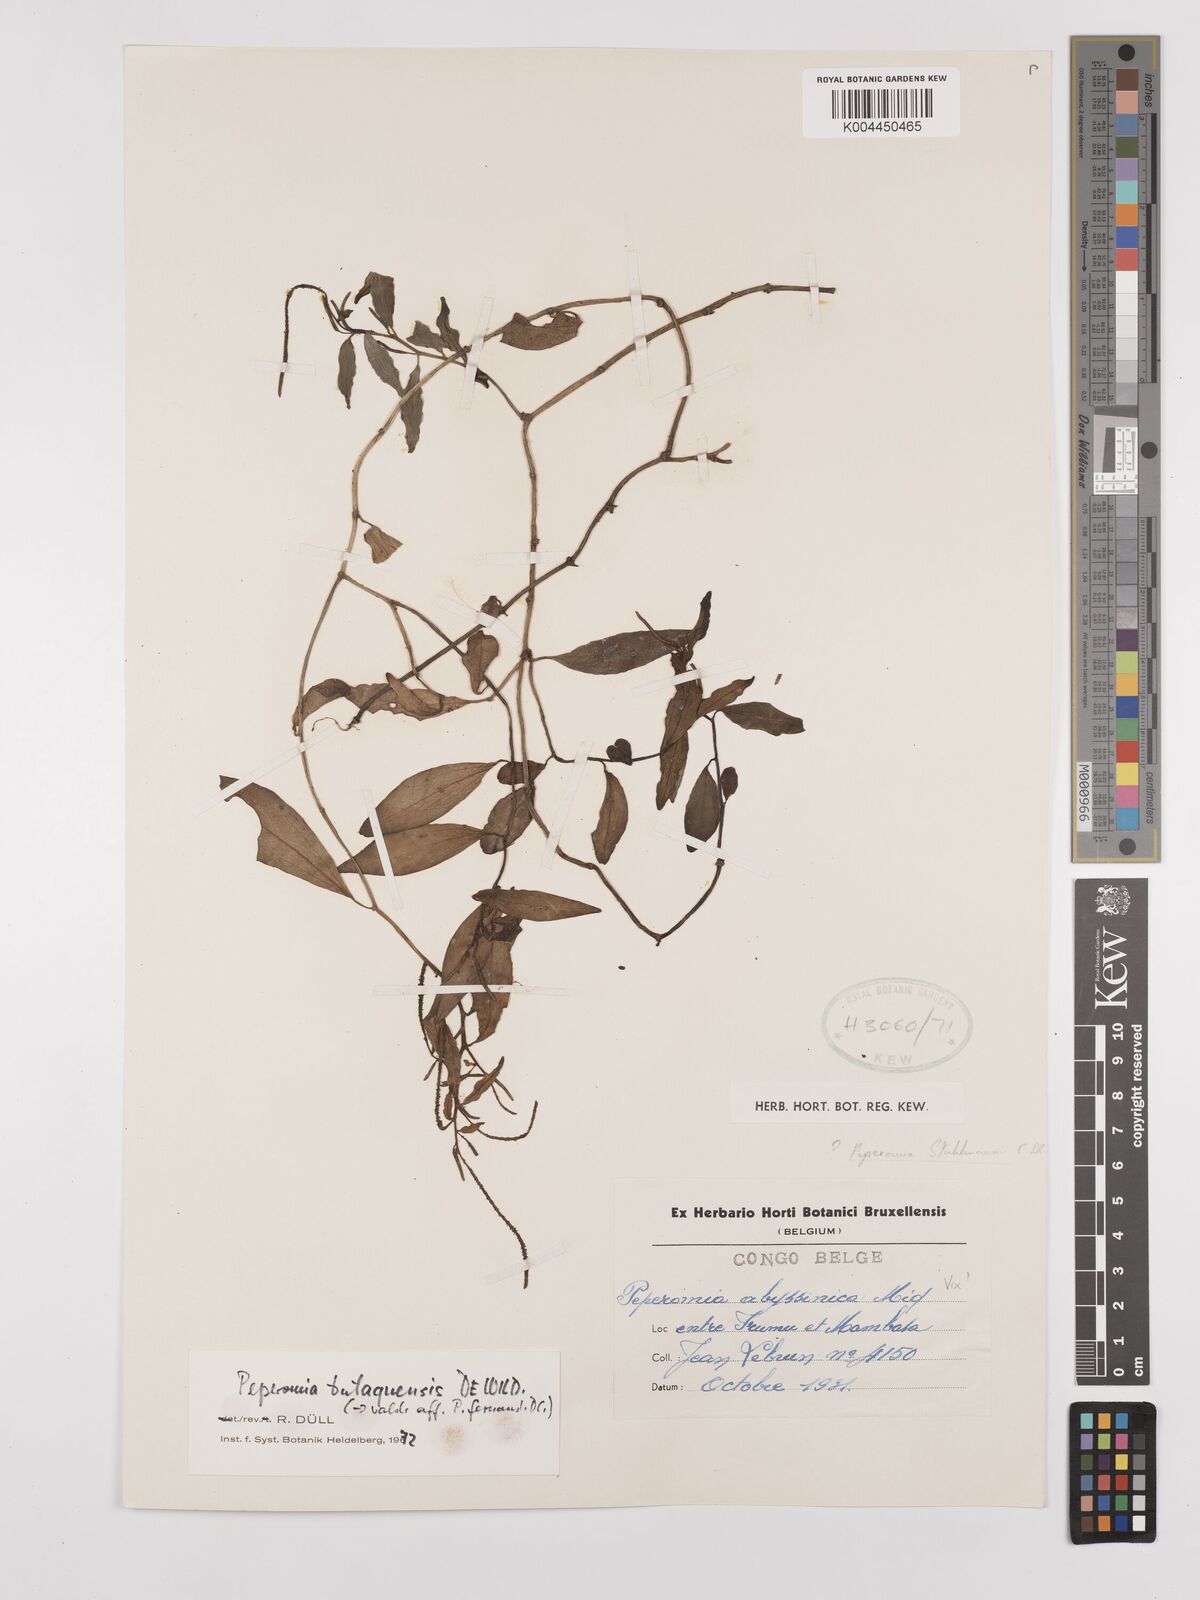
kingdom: Plantae
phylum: Tracheophyta
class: Magnoliopsida
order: Piperales
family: Piperaceae
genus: Peperomia
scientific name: Peperomia fernandopoiana
